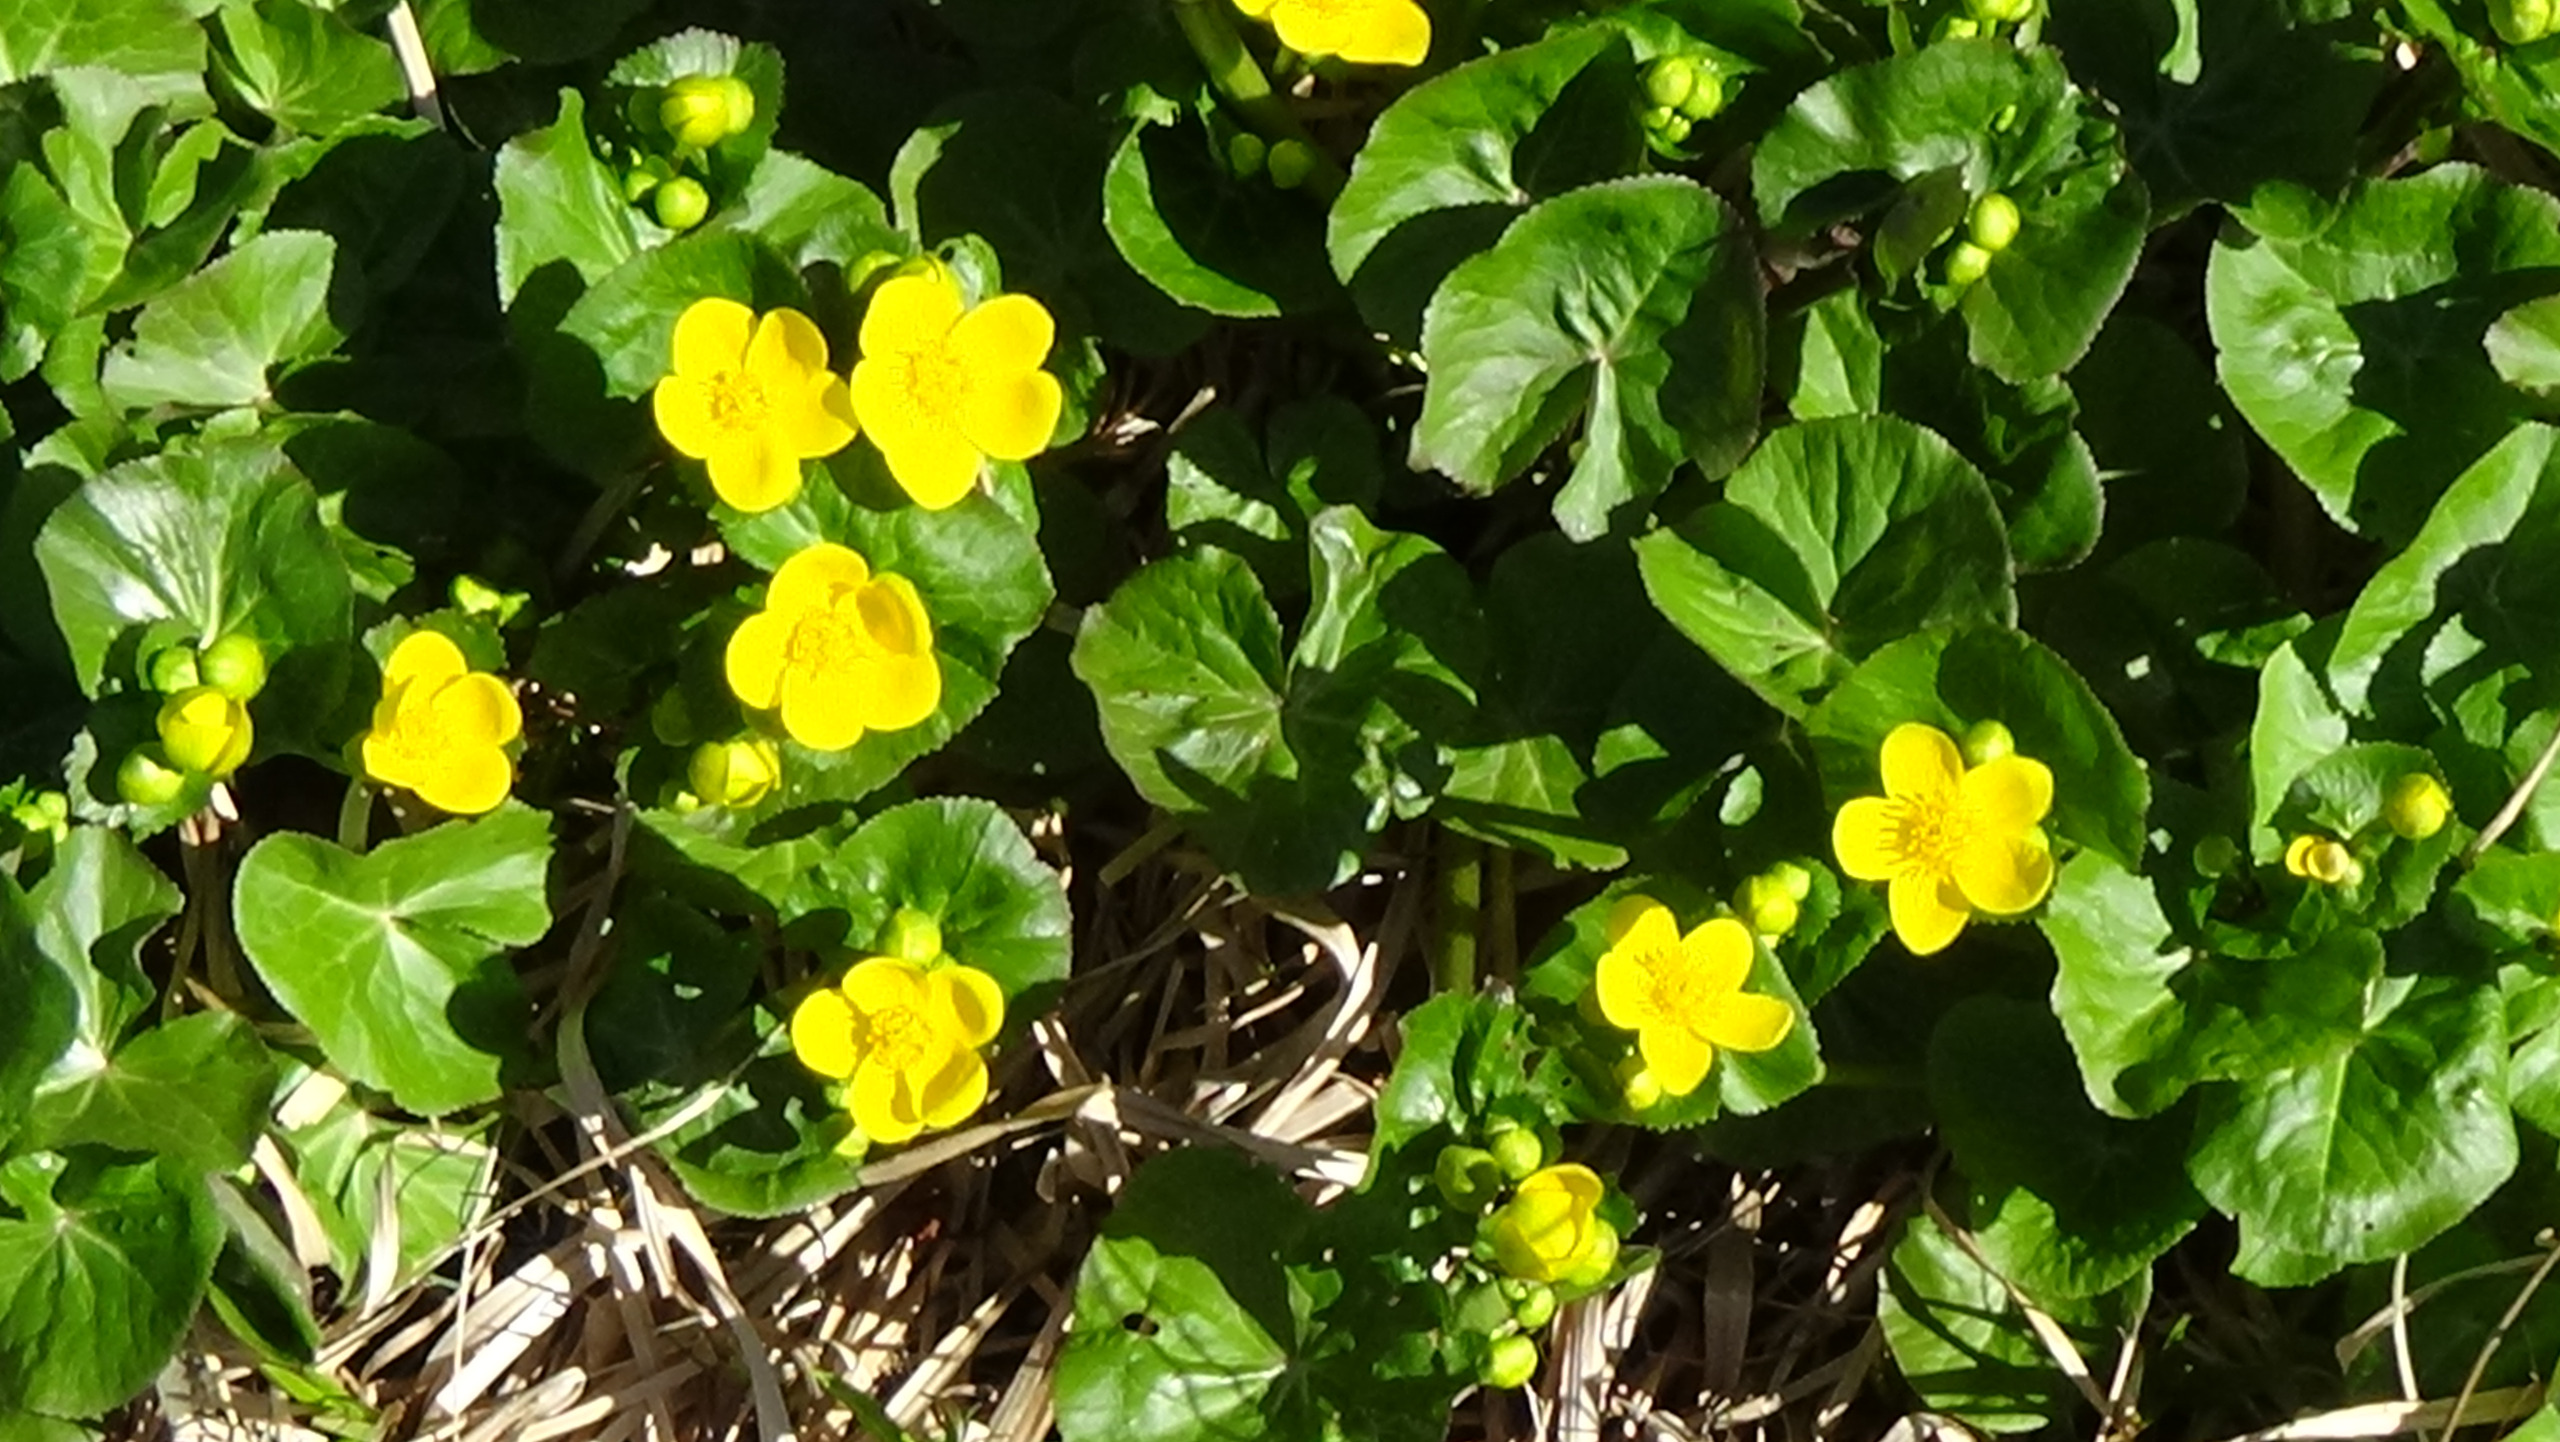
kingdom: Plantae
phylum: Tracheophyta
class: Magnoliopsida
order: Ranunculales
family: Ranunculaceae
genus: Caltha
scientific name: Caltha palustris
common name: Eng-kabbeleje
